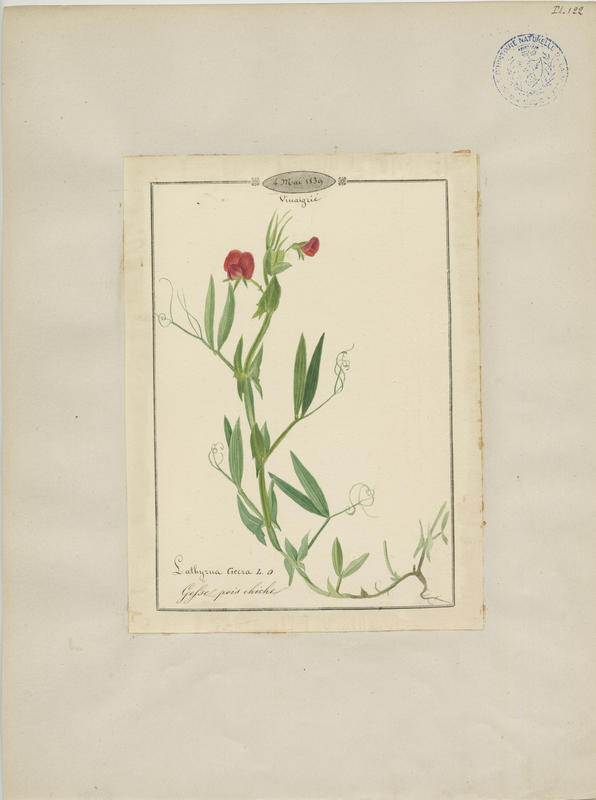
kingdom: Plantae
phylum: Tracheophyta
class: Magnoliopsida
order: Fabales
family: Fabaceae
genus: Lathyrus
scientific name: Lathyrus cicera
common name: Red vetchling
